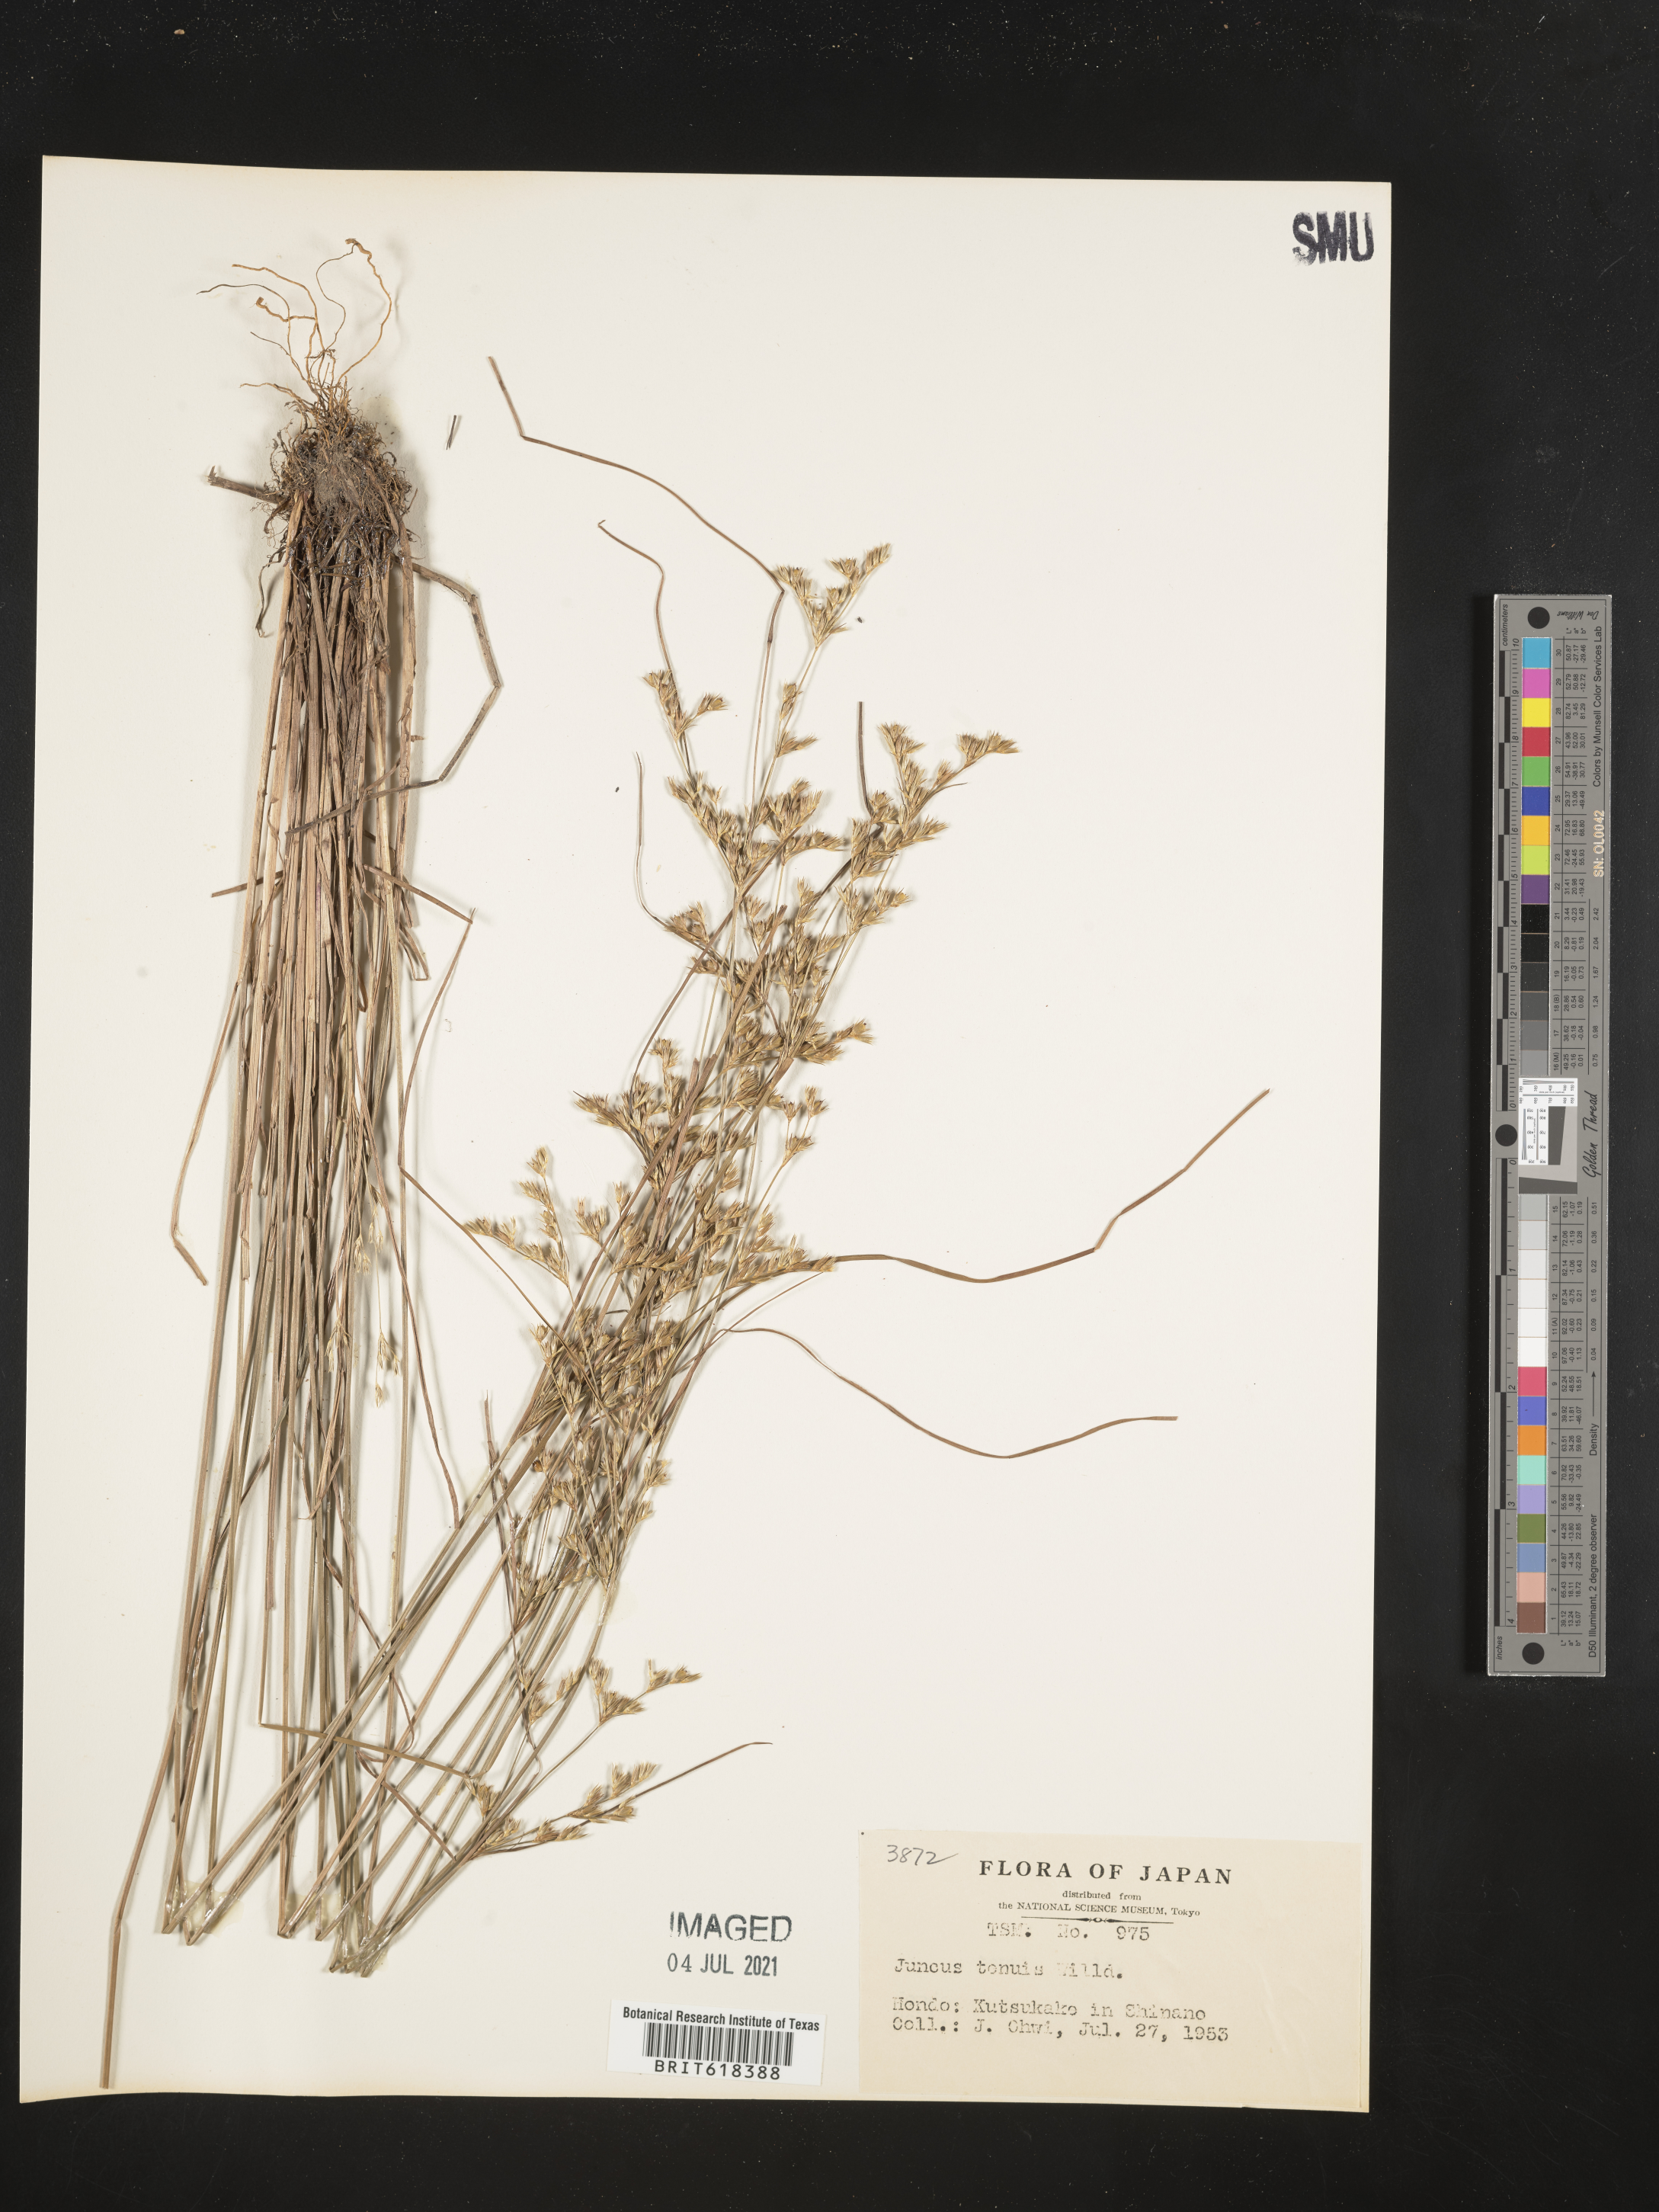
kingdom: Plantae
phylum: Tracheophyta
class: Liliopsida
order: Poales
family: Juncaceae
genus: Juncus
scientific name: Juncus tenuis
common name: Slender rush
